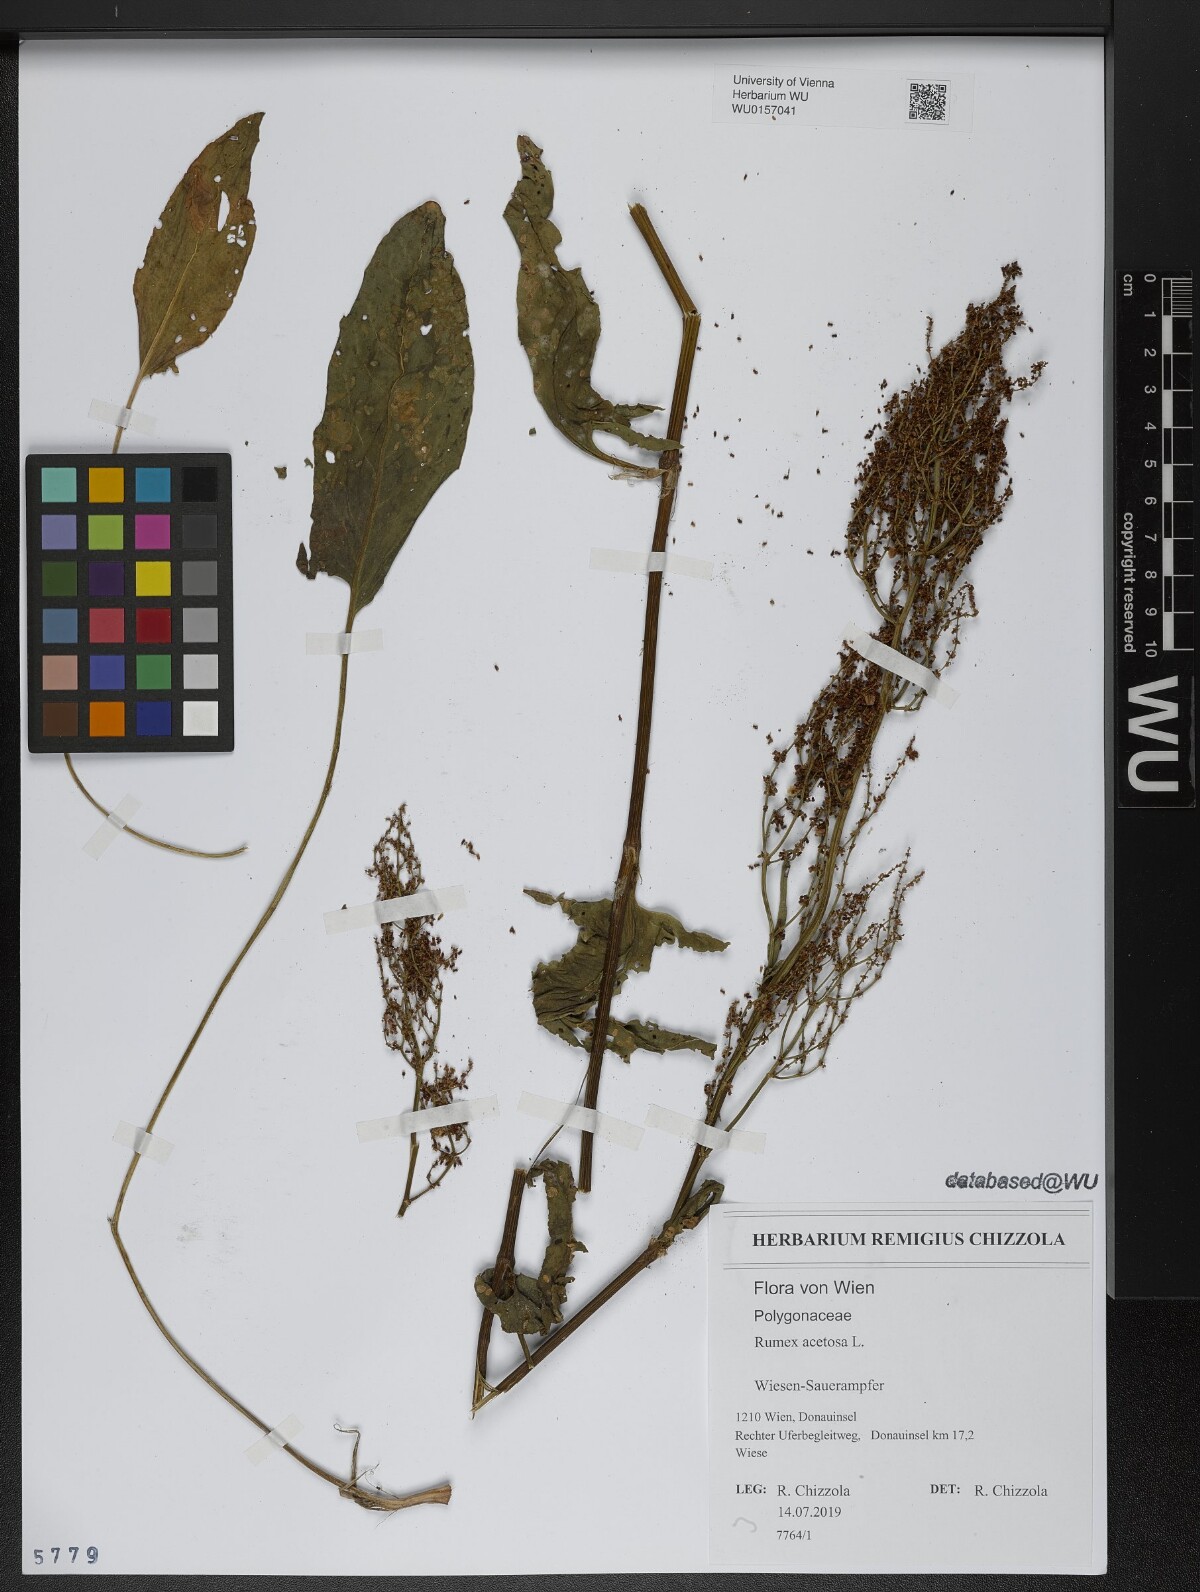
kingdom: Plantae
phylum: Tracheophyta
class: Magnoliopsida
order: Caryophyllales
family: Polygonaceae
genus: Rumex
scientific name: Rumex acetosa
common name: Garden sorrel
